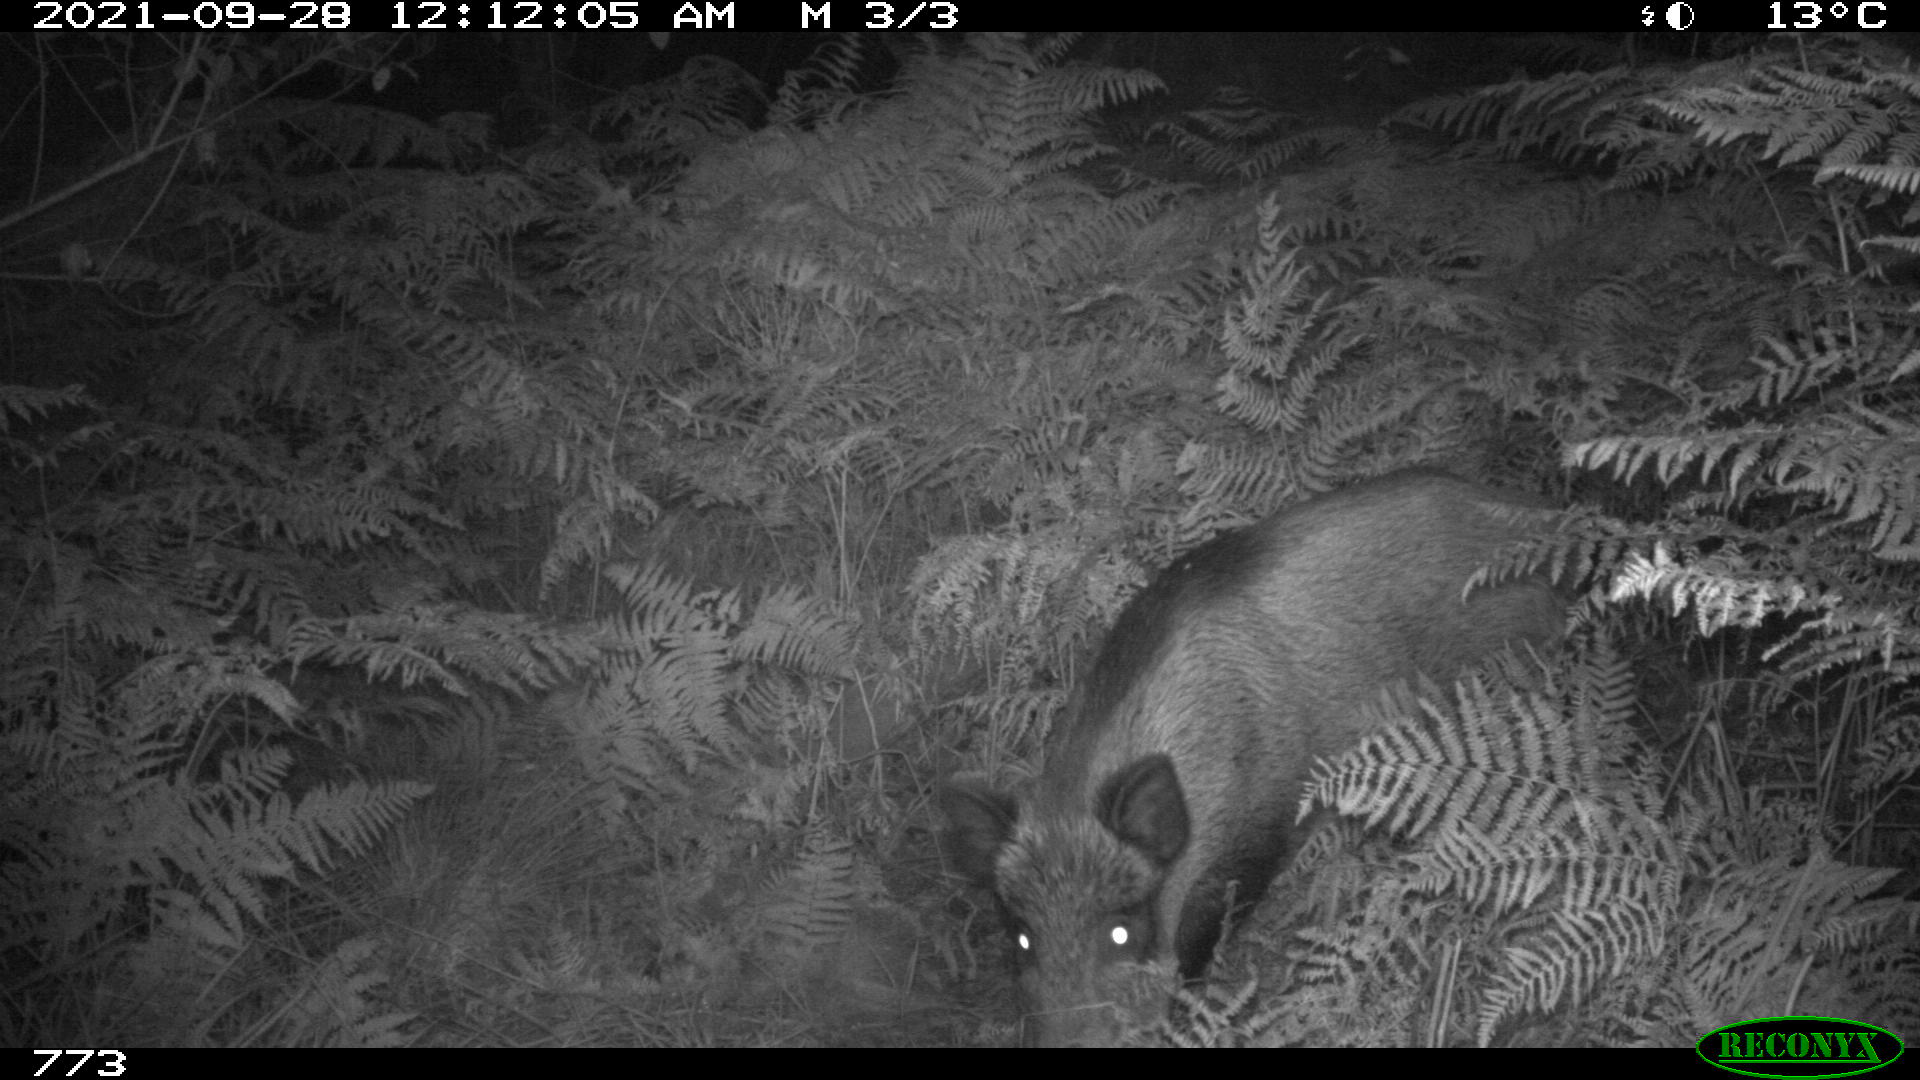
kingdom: Animalia
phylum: Chordata
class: Mammalia
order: Artiodactyla
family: Suidae
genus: Sus
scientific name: Sus scrofa
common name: Wild boar
